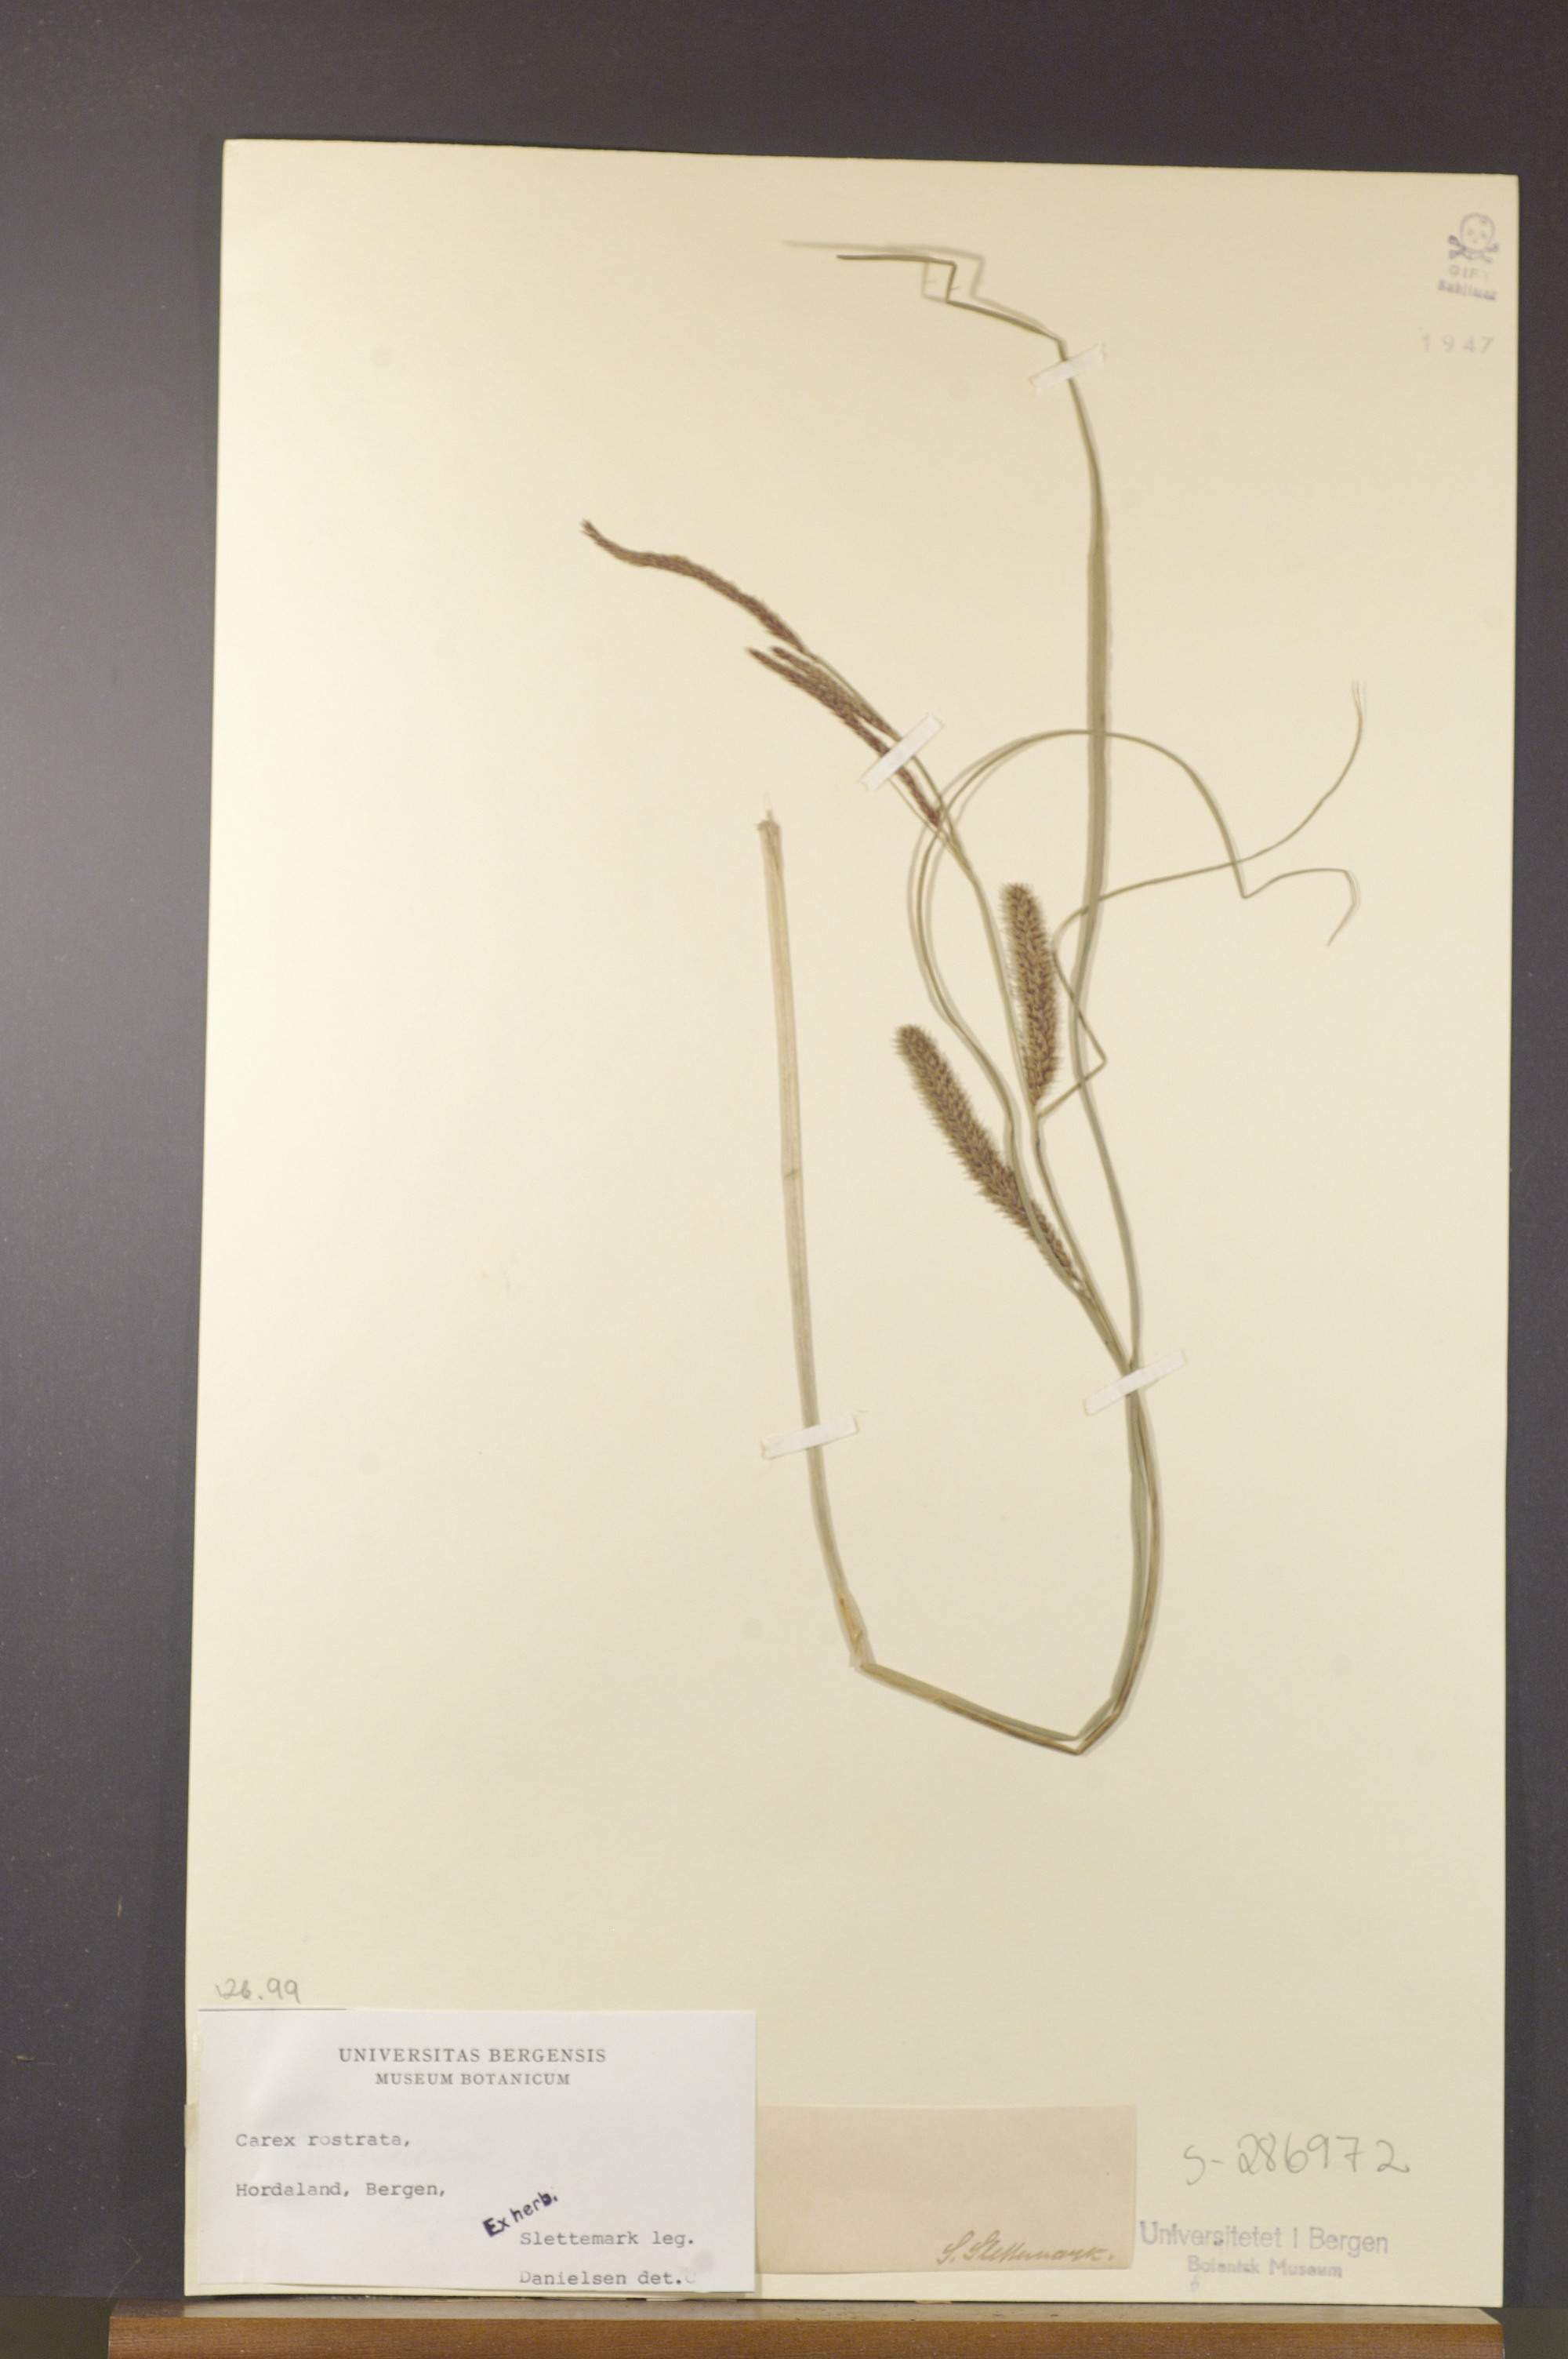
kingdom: Plantae
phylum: Tracheophyta
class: Liliopsida
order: Poales
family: Cyperaceae
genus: Carex
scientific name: Carex rostrata
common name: Bottle sedge
